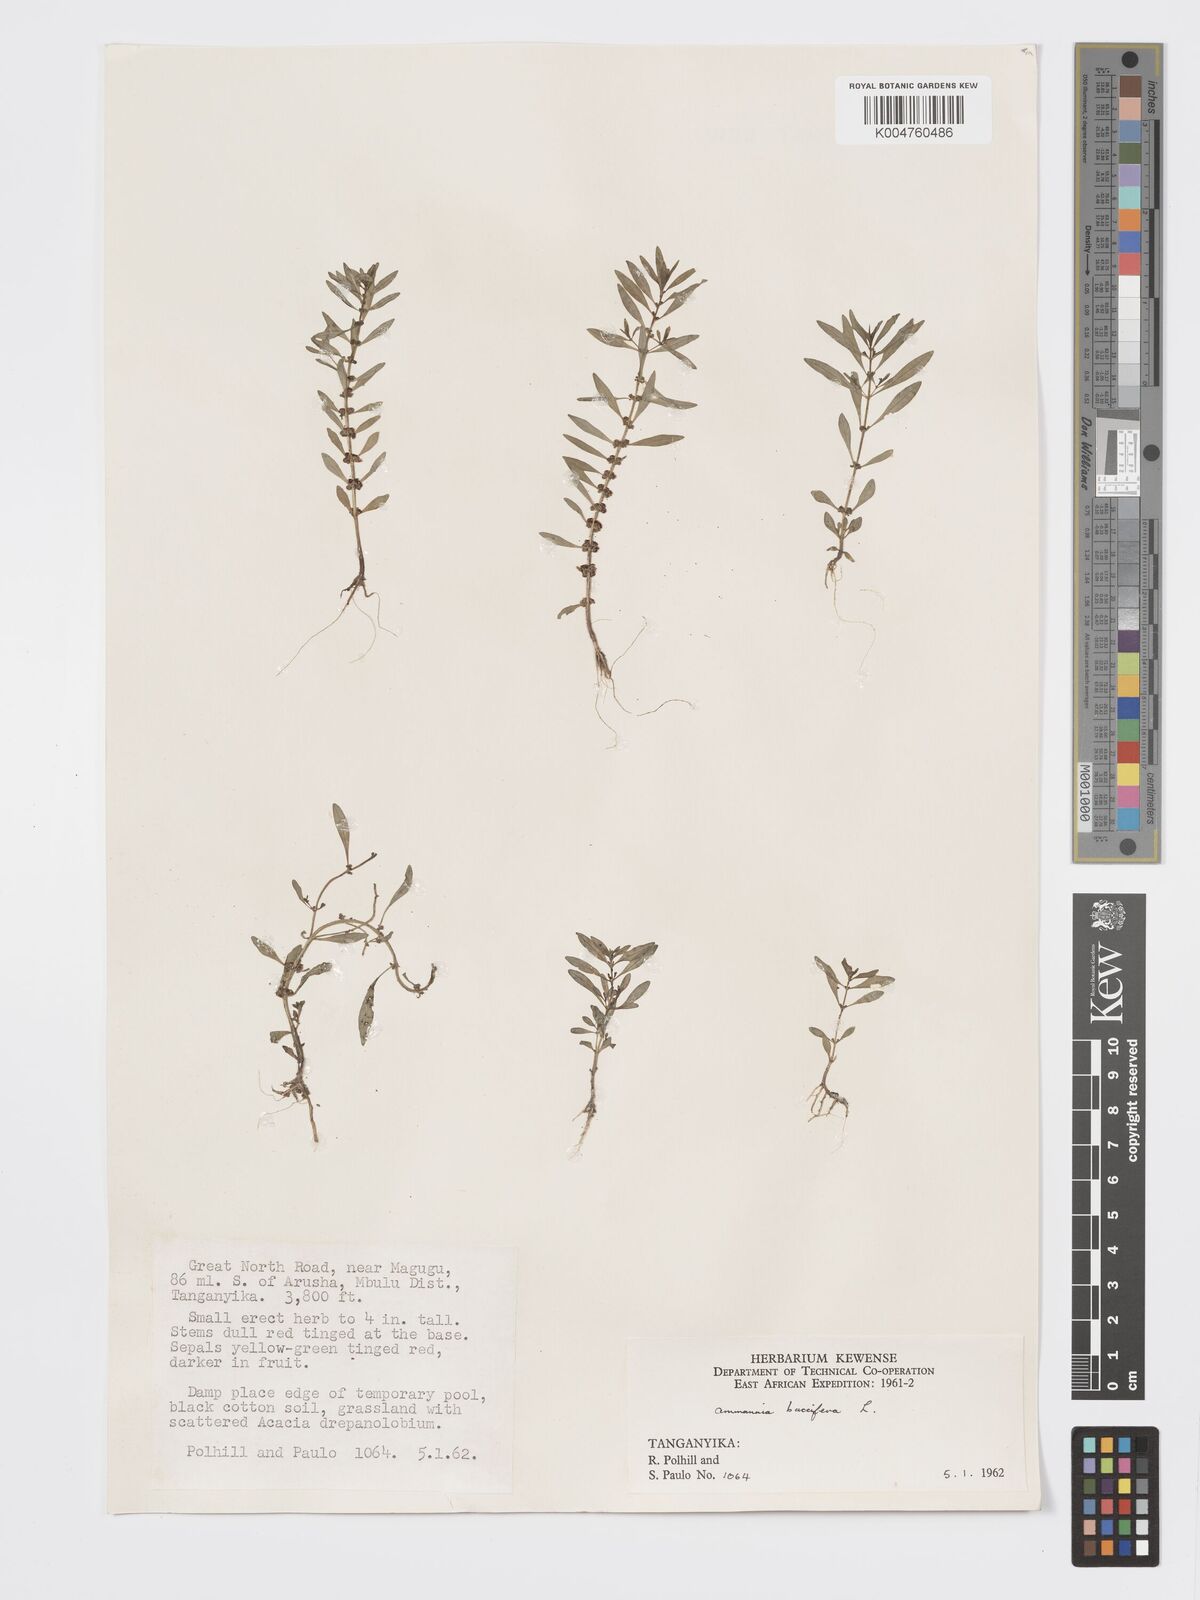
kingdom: Plantae
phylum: Tracheophyta
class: Magnoliopsida
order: Myrtales
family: Lythraceae
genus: Ammannia
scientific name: Ammannia
